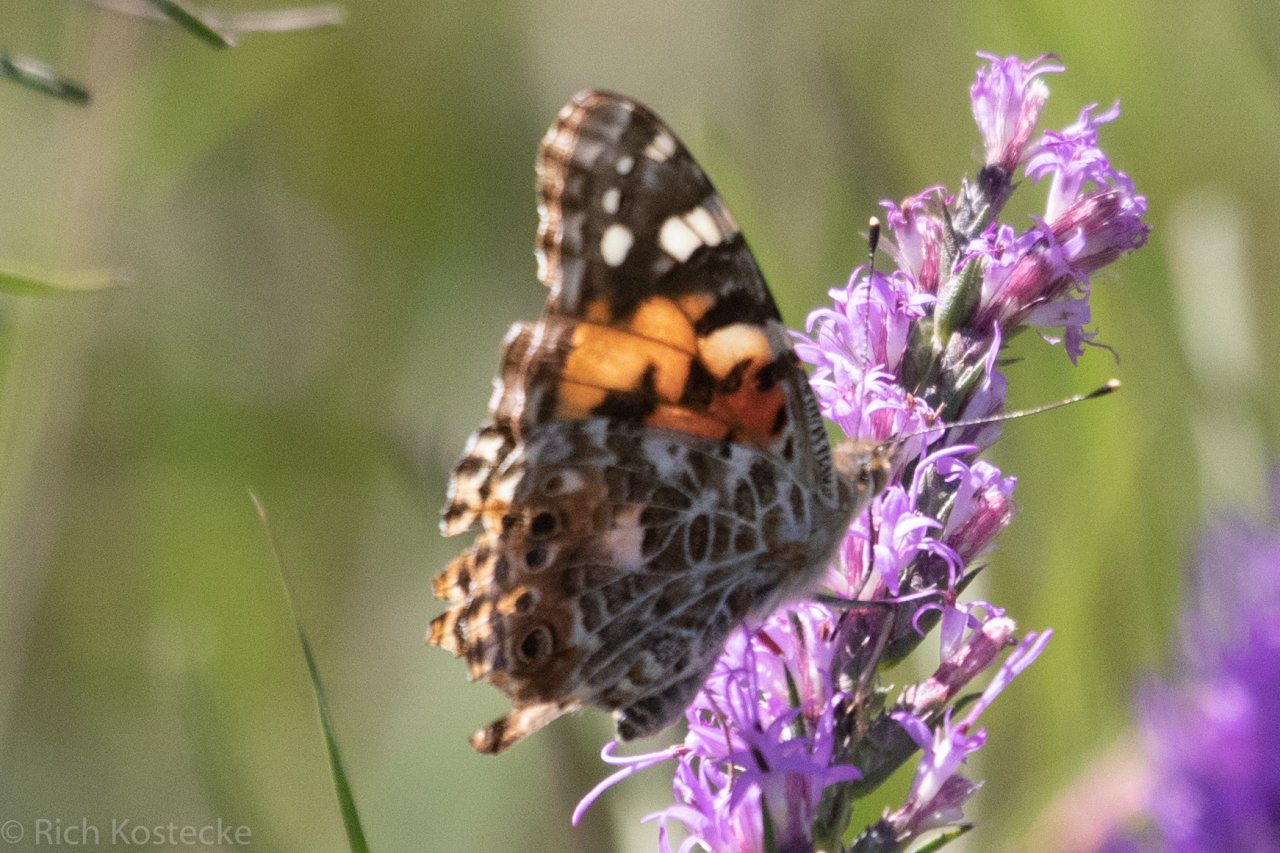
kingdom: Animalia
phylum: Arthropoda
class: Insecta
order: Lepidoptera
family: Nymphalidae
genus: Vanessa
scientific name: Vanessa cardui
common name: Painted Lady
